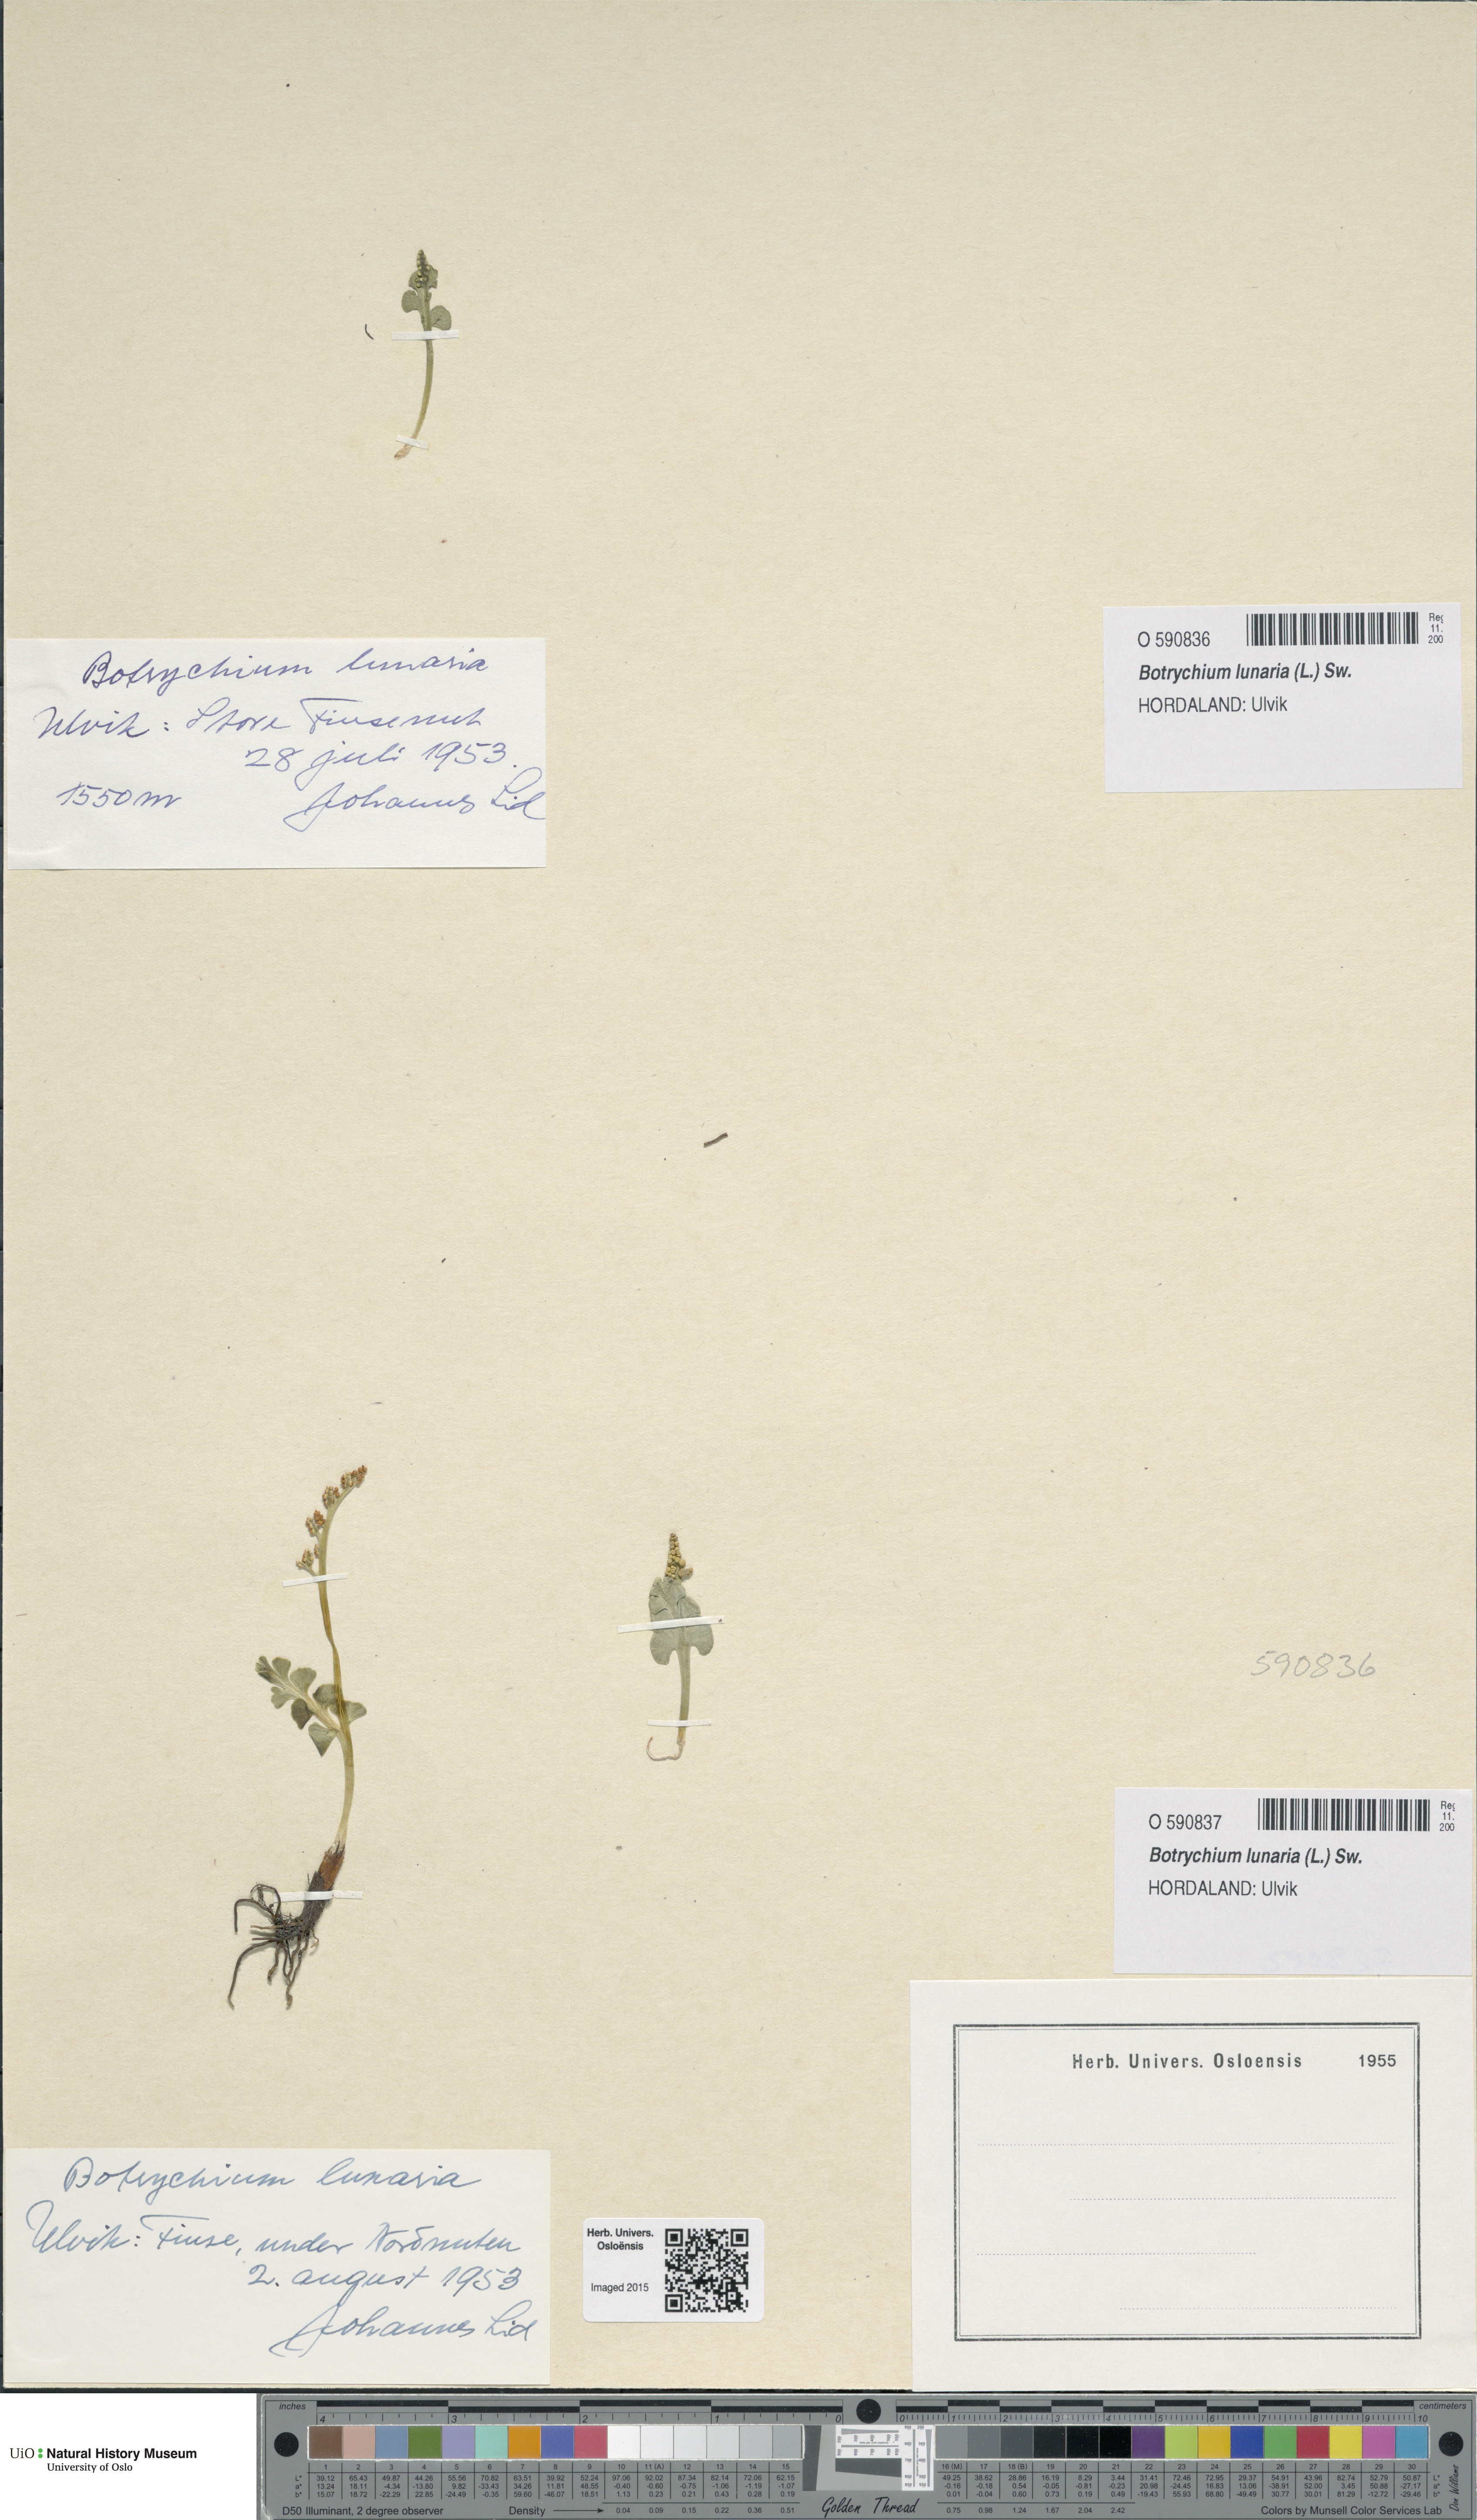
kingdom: Plantae
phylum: Tracheophyta
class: Polypodiopsida
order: Ophioglossales
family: Ophioglossaceae
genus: Botrychium
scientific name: Botrychium lunaria
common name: Moonwort
